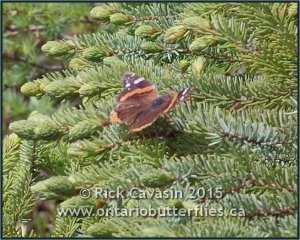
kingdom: Animalia
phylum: Arthropoda
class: Insecta
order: Lepidoptera
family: Nymphalidae
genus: Vanessa
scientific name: Vanessa atalanta
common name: Red Admiral
